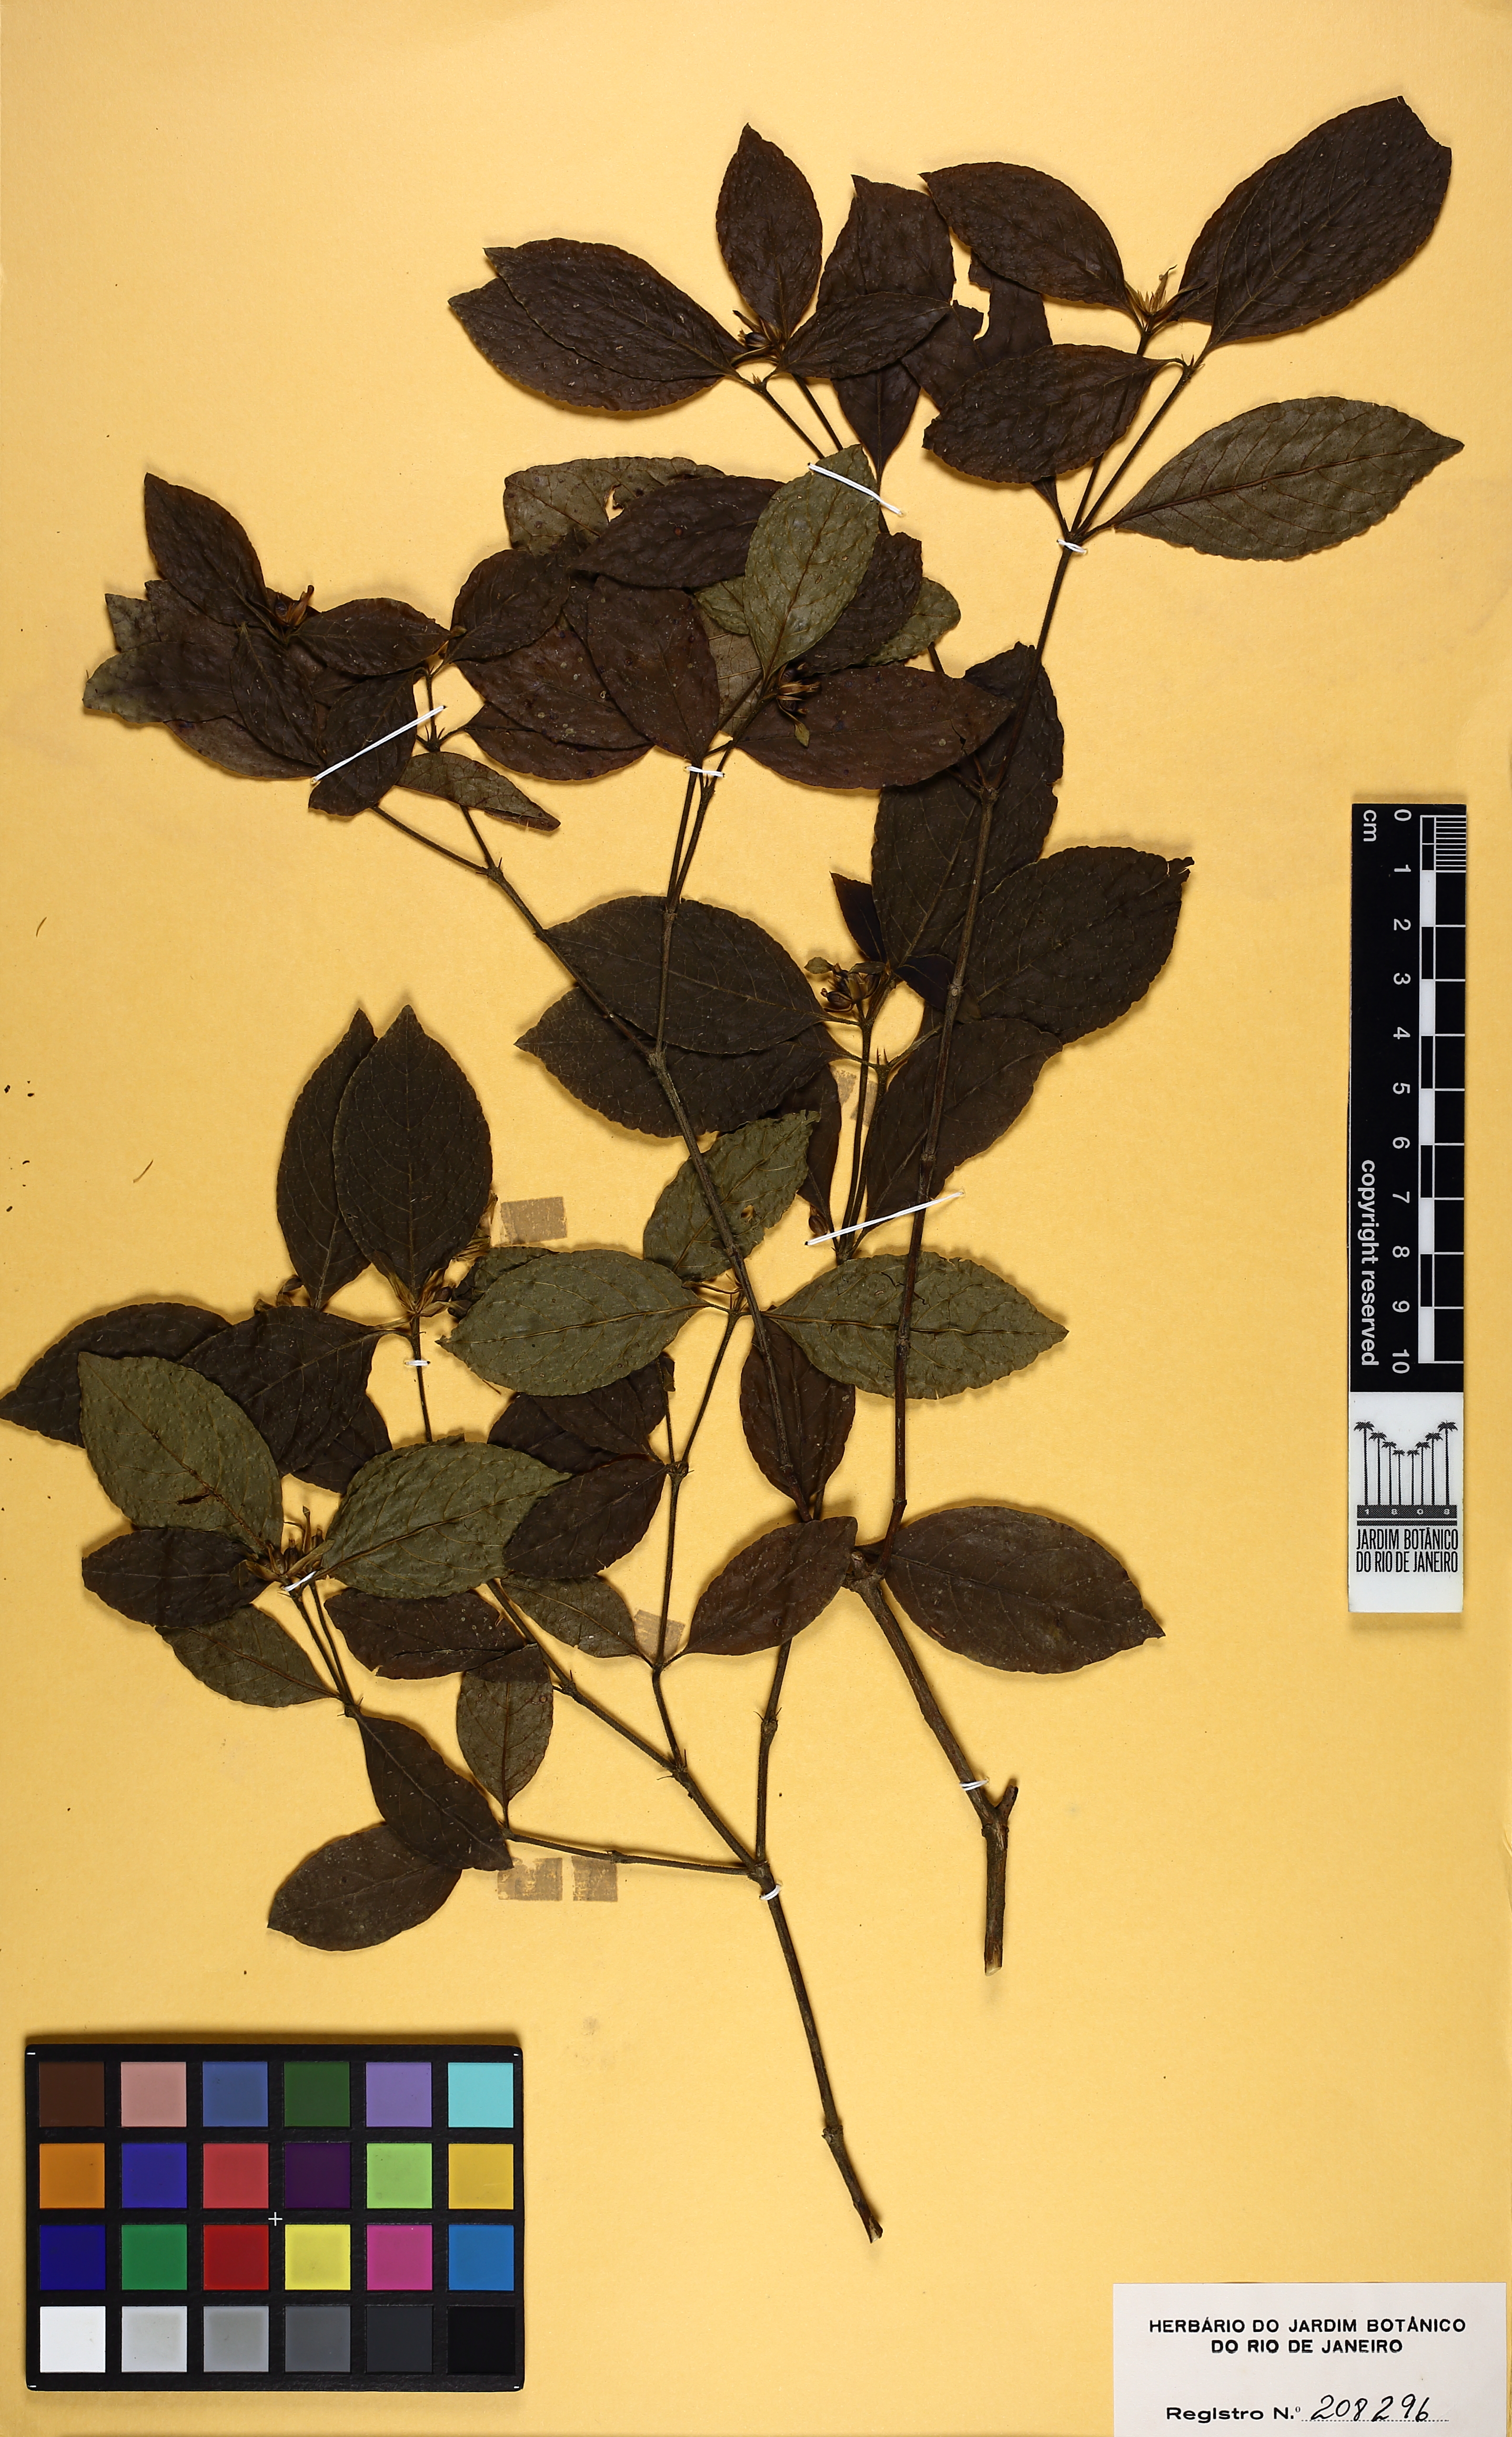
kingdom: Plantae
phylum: Tracheophyta
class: Magnoliopsida
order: Gentianales
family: Rubiaceae
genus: Palicourea
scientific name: Palicourea prunifolia
